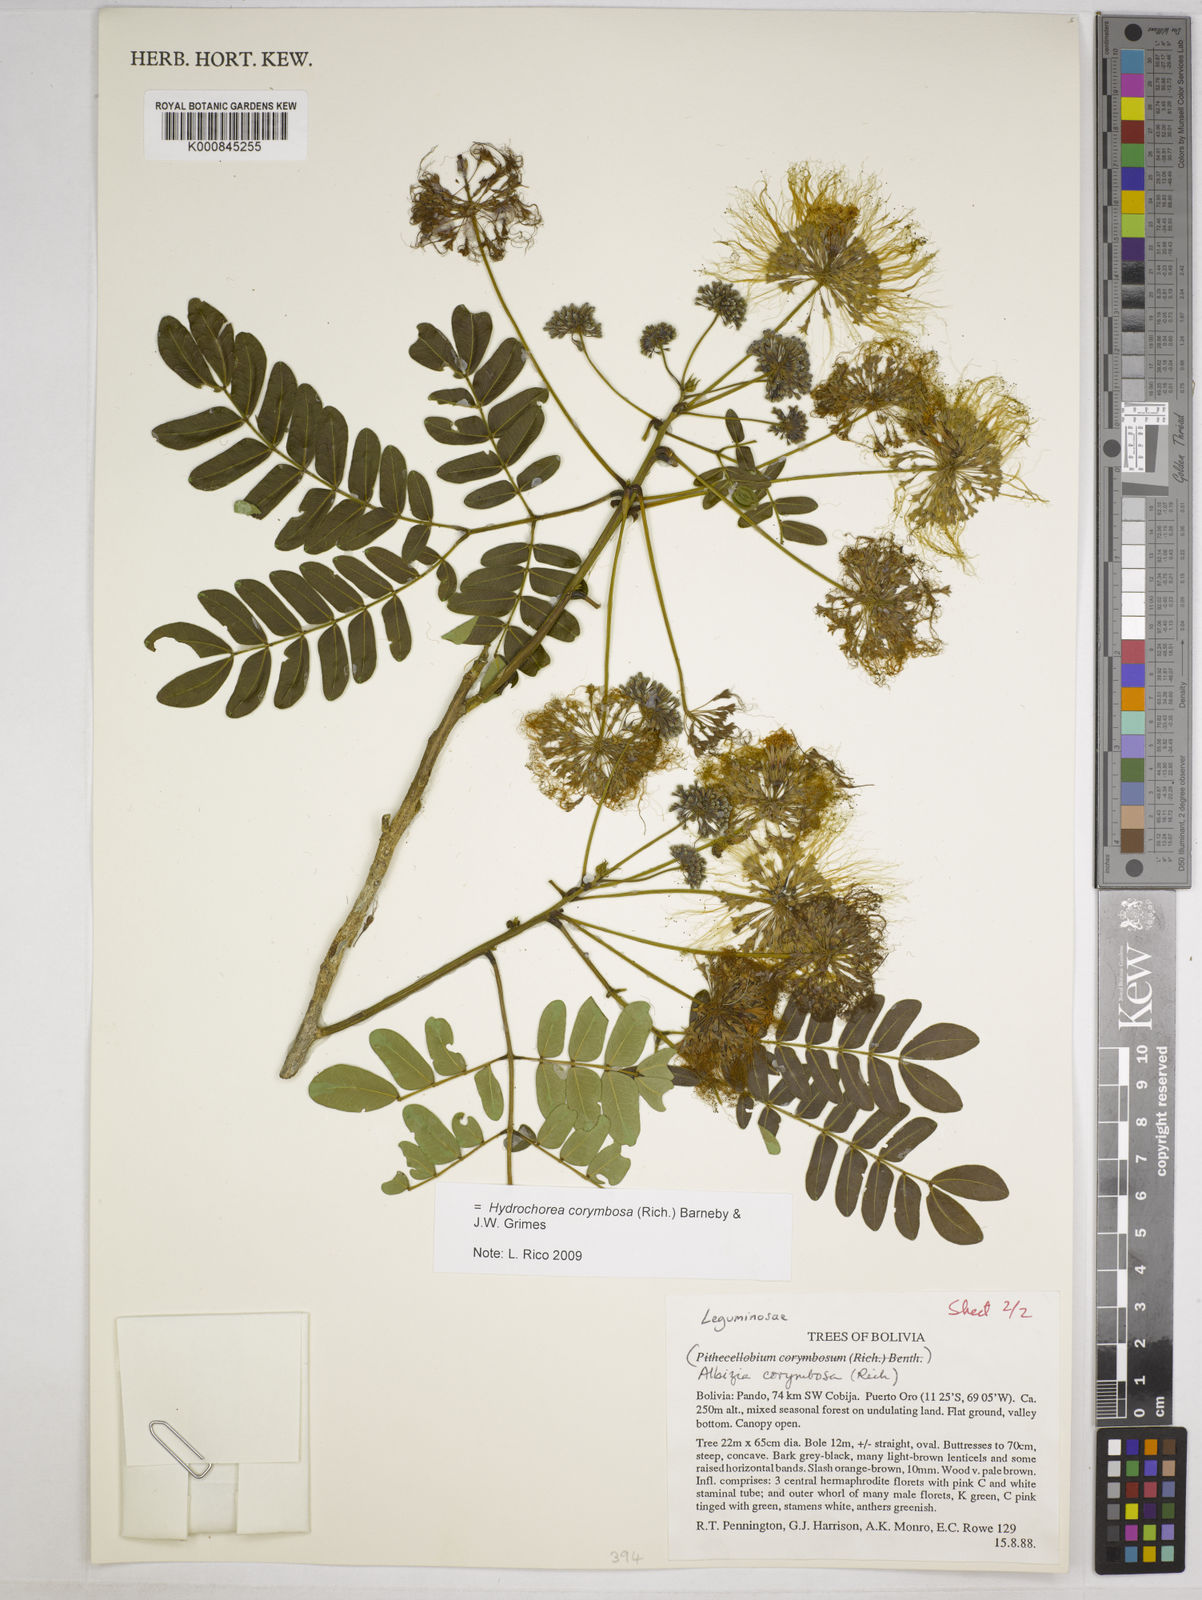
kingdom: Plantae
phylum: Tracheophyta
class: Magnoliopsida
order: Fabales
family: Fabaceae
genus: Hydrochorea
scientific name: Hydrochorea corymbosa
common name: Swamp manariballi
